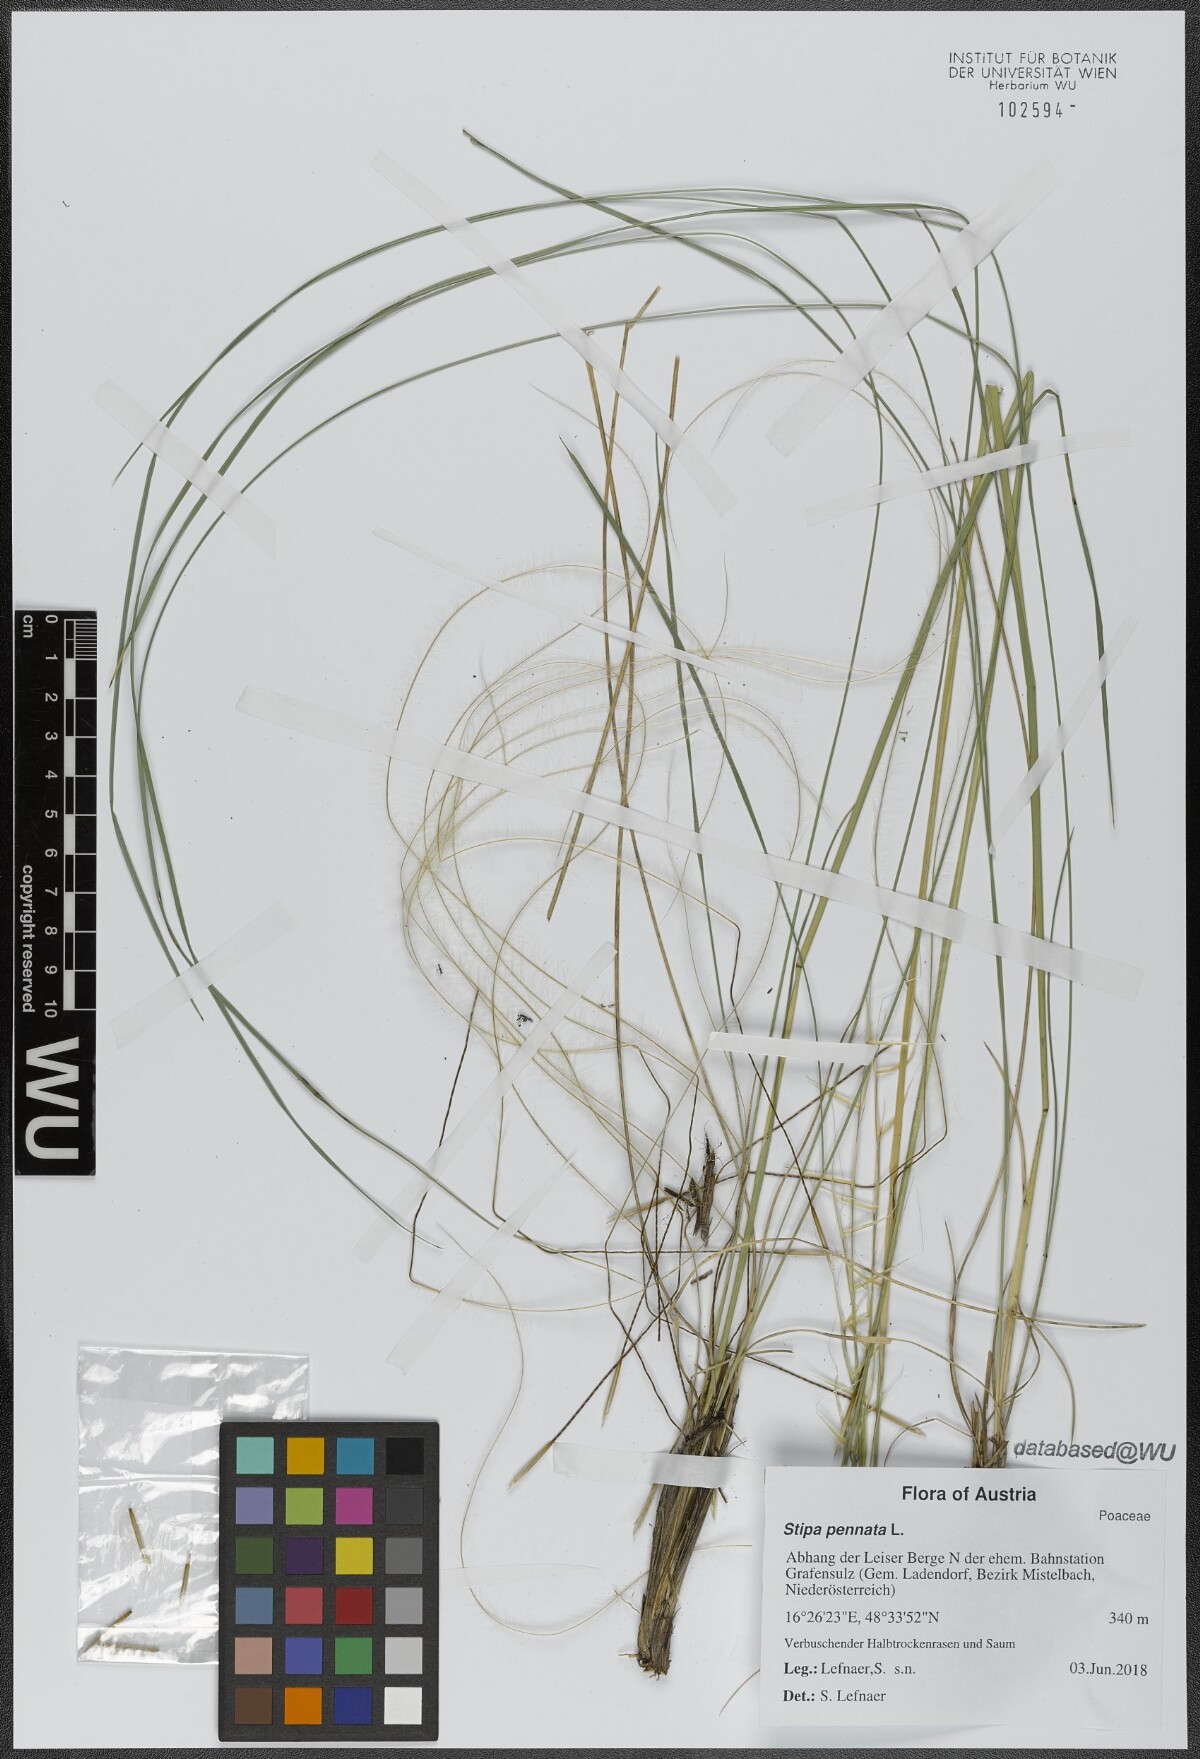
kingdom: Plantae
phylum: Tracheophyta
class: Liliopsida
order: Poales
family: Poaceae
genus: Stipa
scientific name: Stipa pennata
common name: European feather grass
